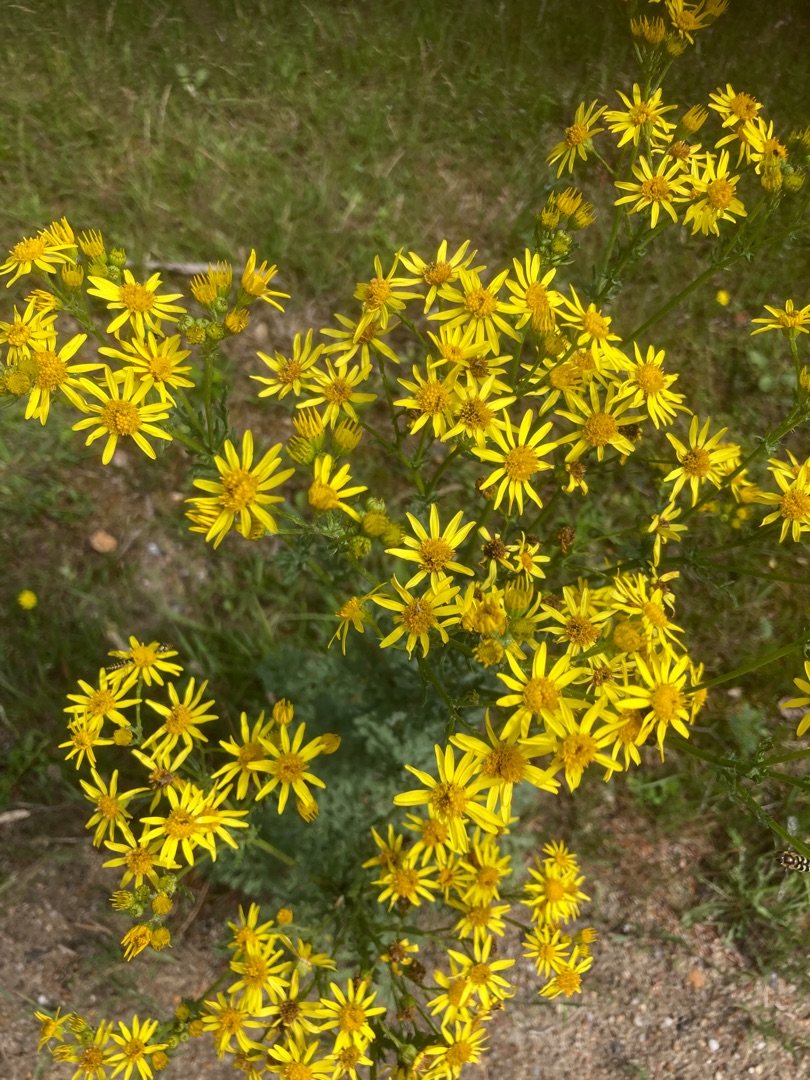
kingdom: Plantae
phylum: Tracheophyta
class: Magnoliopsida
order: Asterales
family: Asteraceae
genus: Jacobaea
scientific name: Jacobaea vulgaris
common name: Eng-brandbæger
